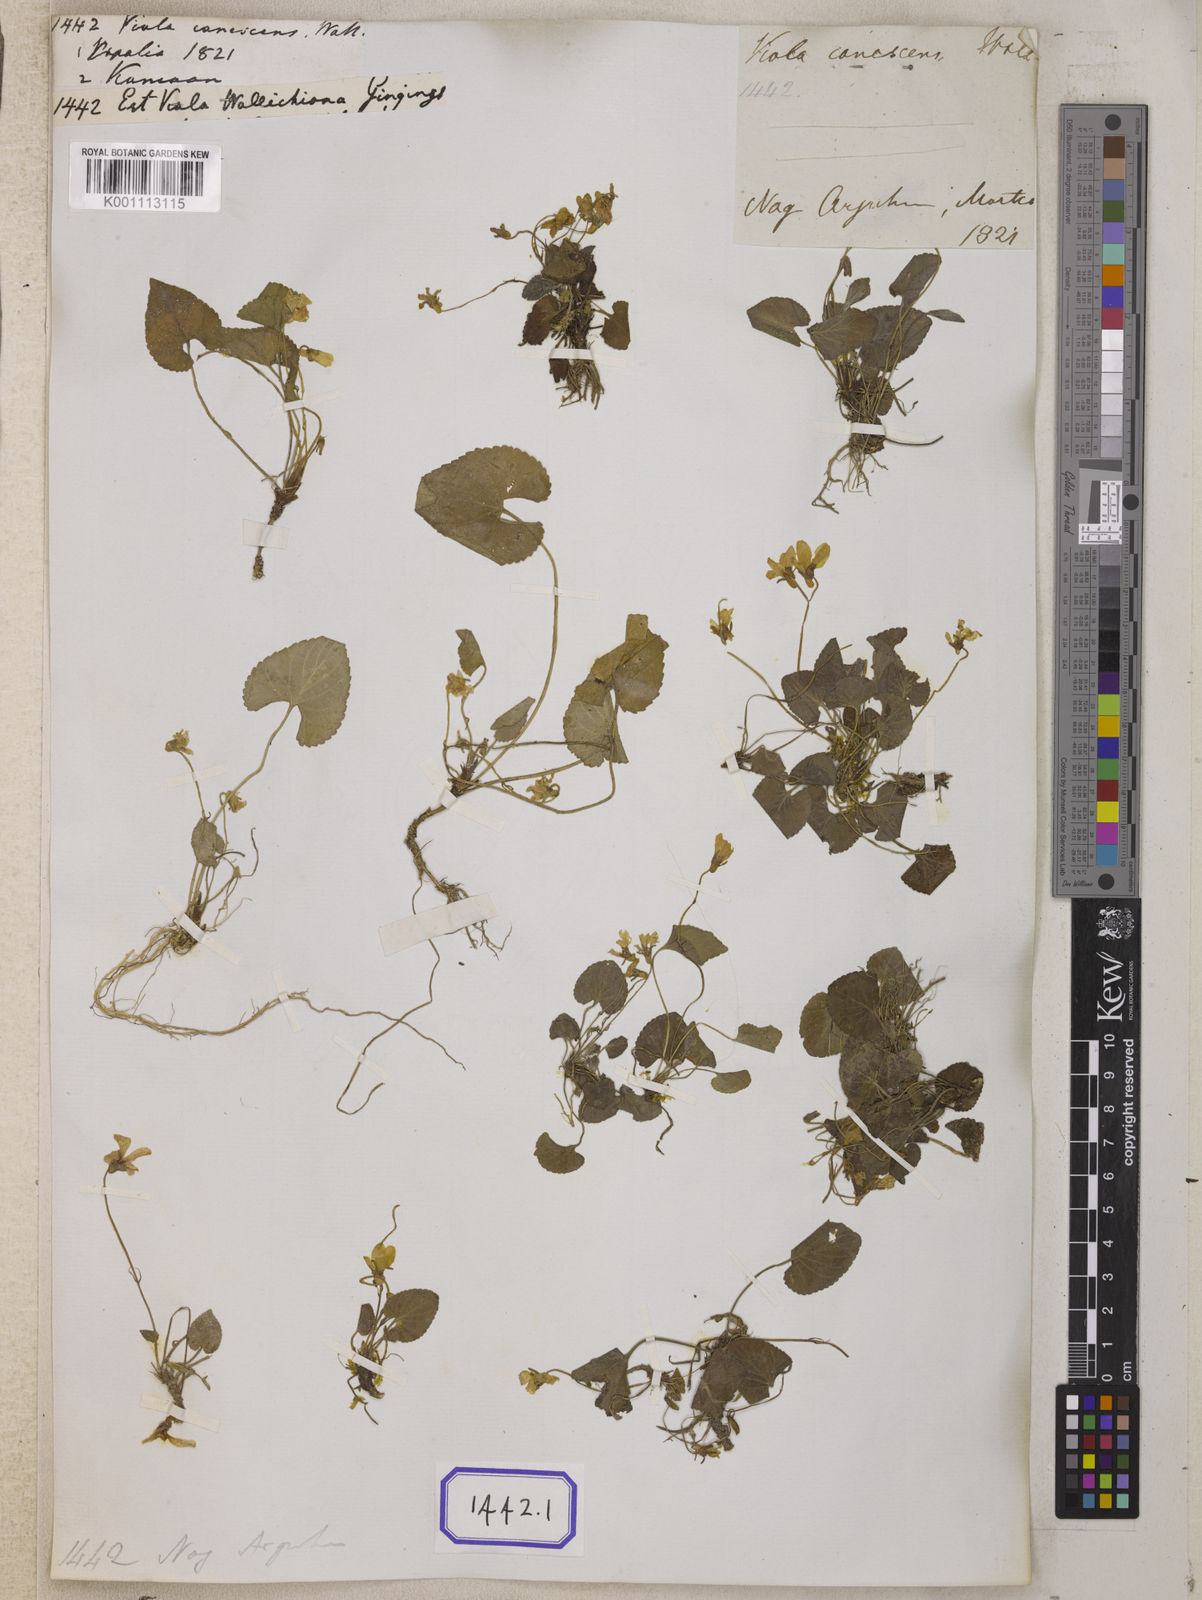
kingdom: Plantae
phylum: Tracheophyta
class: Magnoliopsida
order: Malpighiales
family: Violaceae
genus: Viola
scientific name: Viola wallichiana
